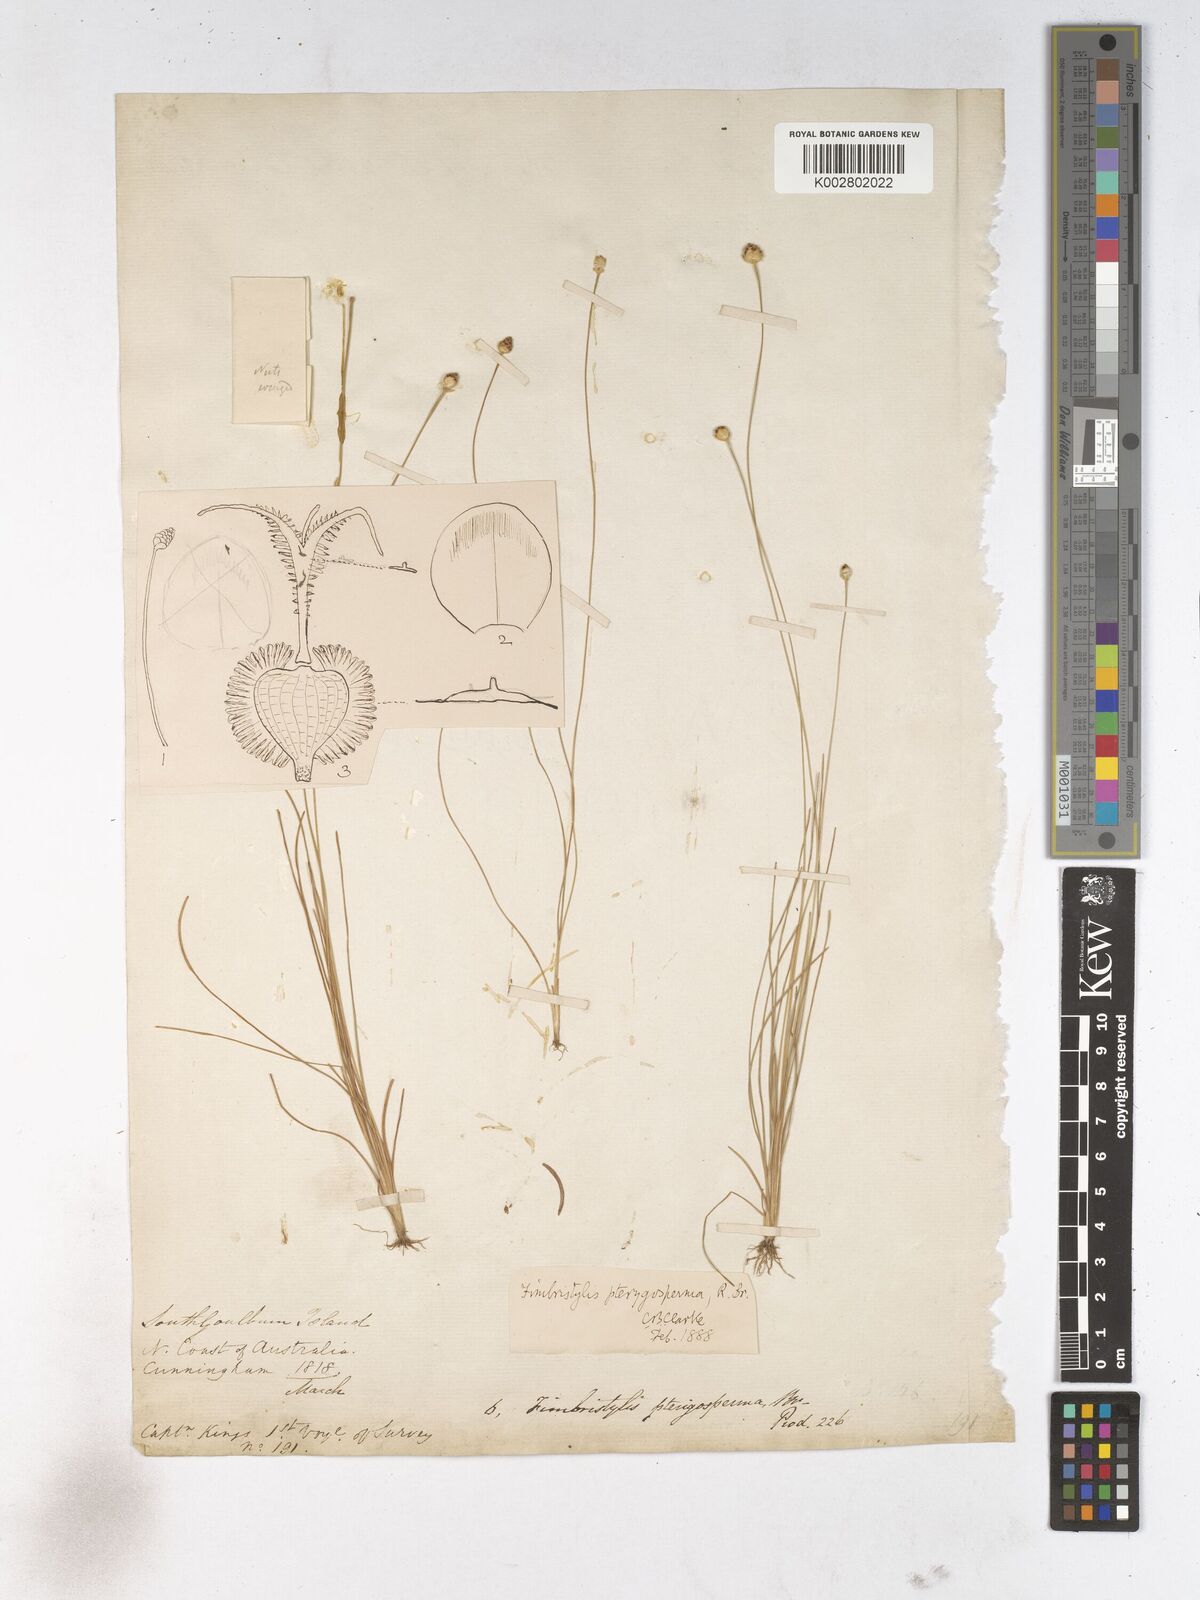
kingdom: Plantae
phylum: Tracheophyta
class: Liliopsida
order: Poales
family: Cyperaceae
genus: Fimbristylis
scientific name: Fimbristylis pterigosperma
